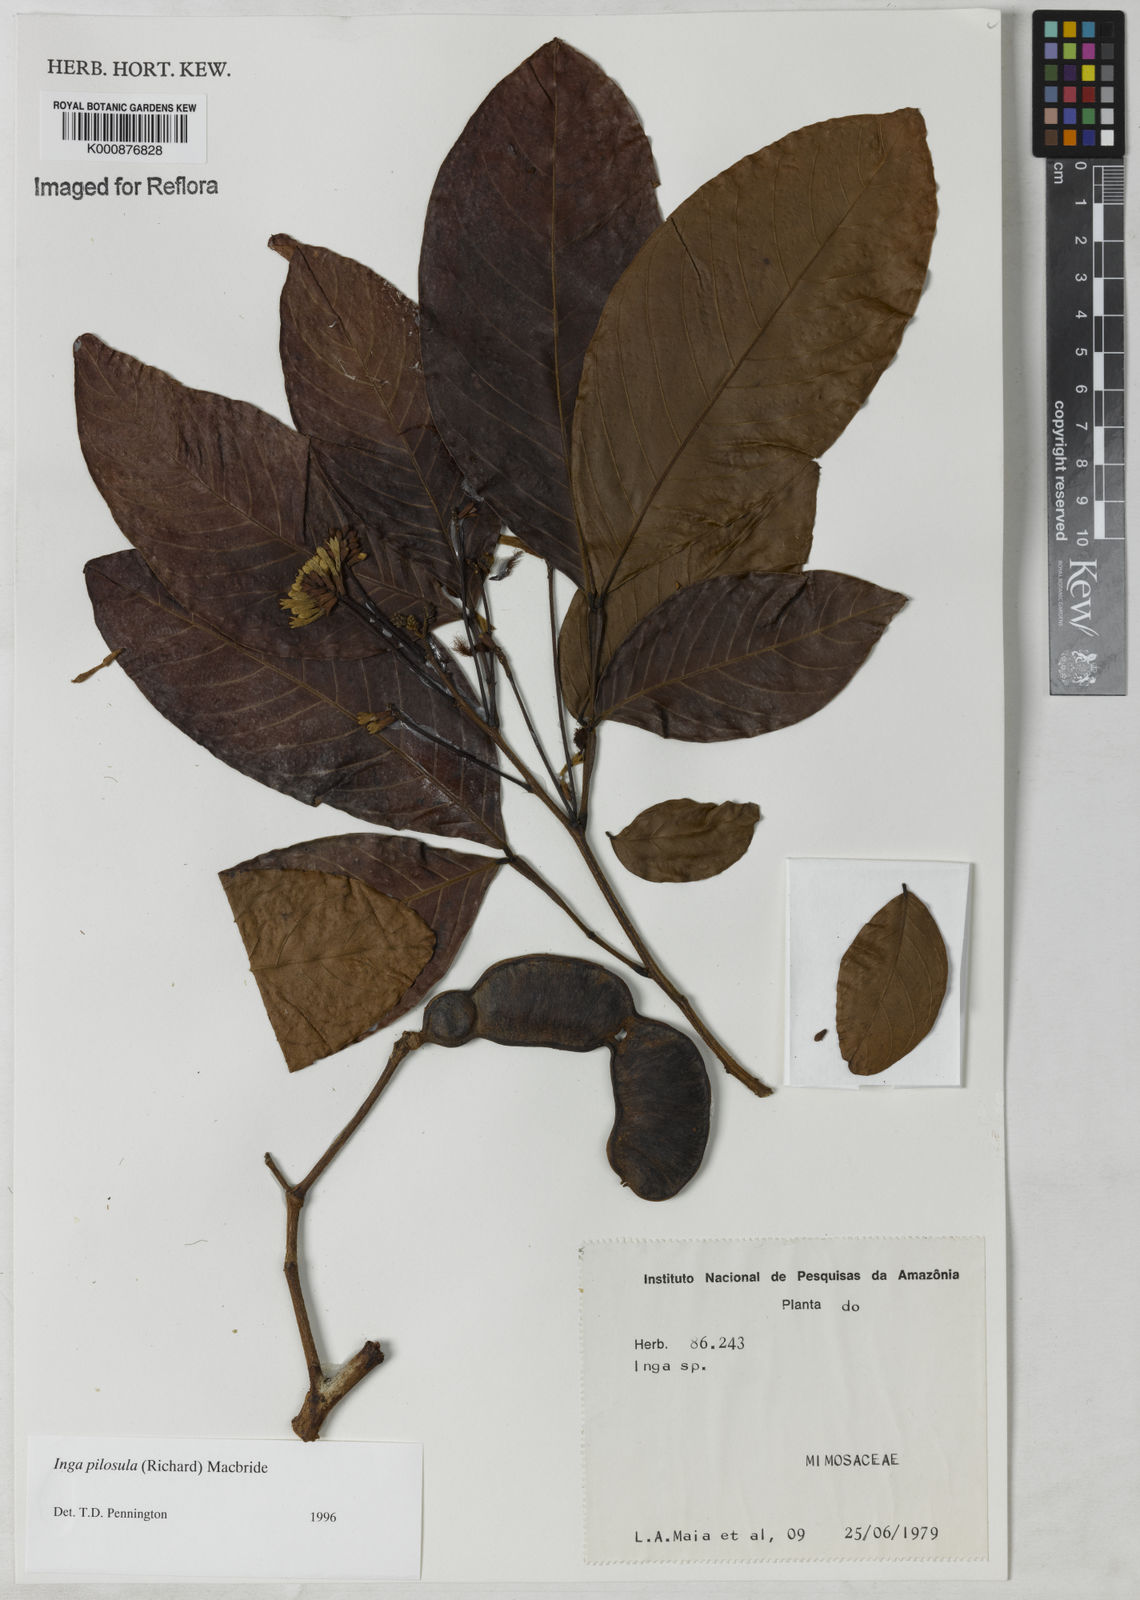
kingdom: Plantae
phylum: Tracheophyta
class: Magnoliopsida
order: Fabales
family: Fabaceae
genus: Inga
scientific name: Inga pilosula
